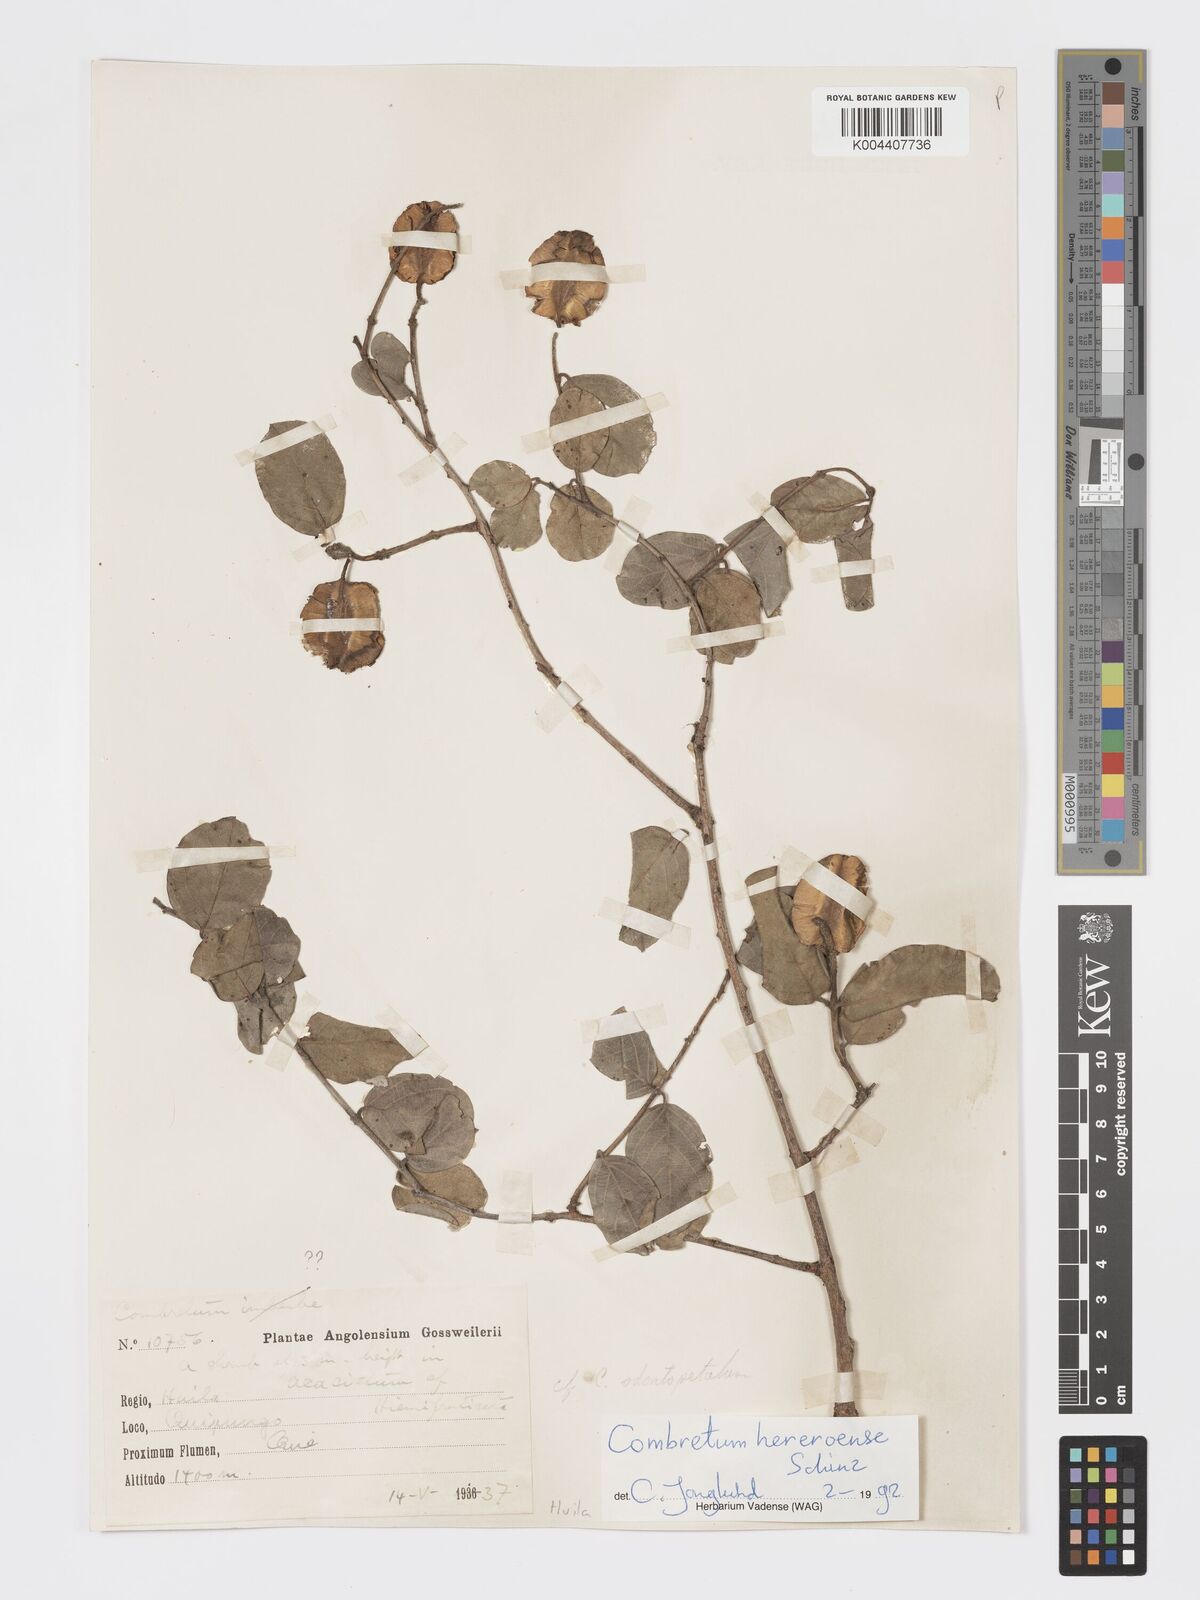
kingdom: Plantae
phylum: Tracheophyta
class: Magnoliopsida
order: Myrtales
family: Combretaceae
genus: Combretum
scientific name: Combretum hereroense
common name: Russet bushwillow
